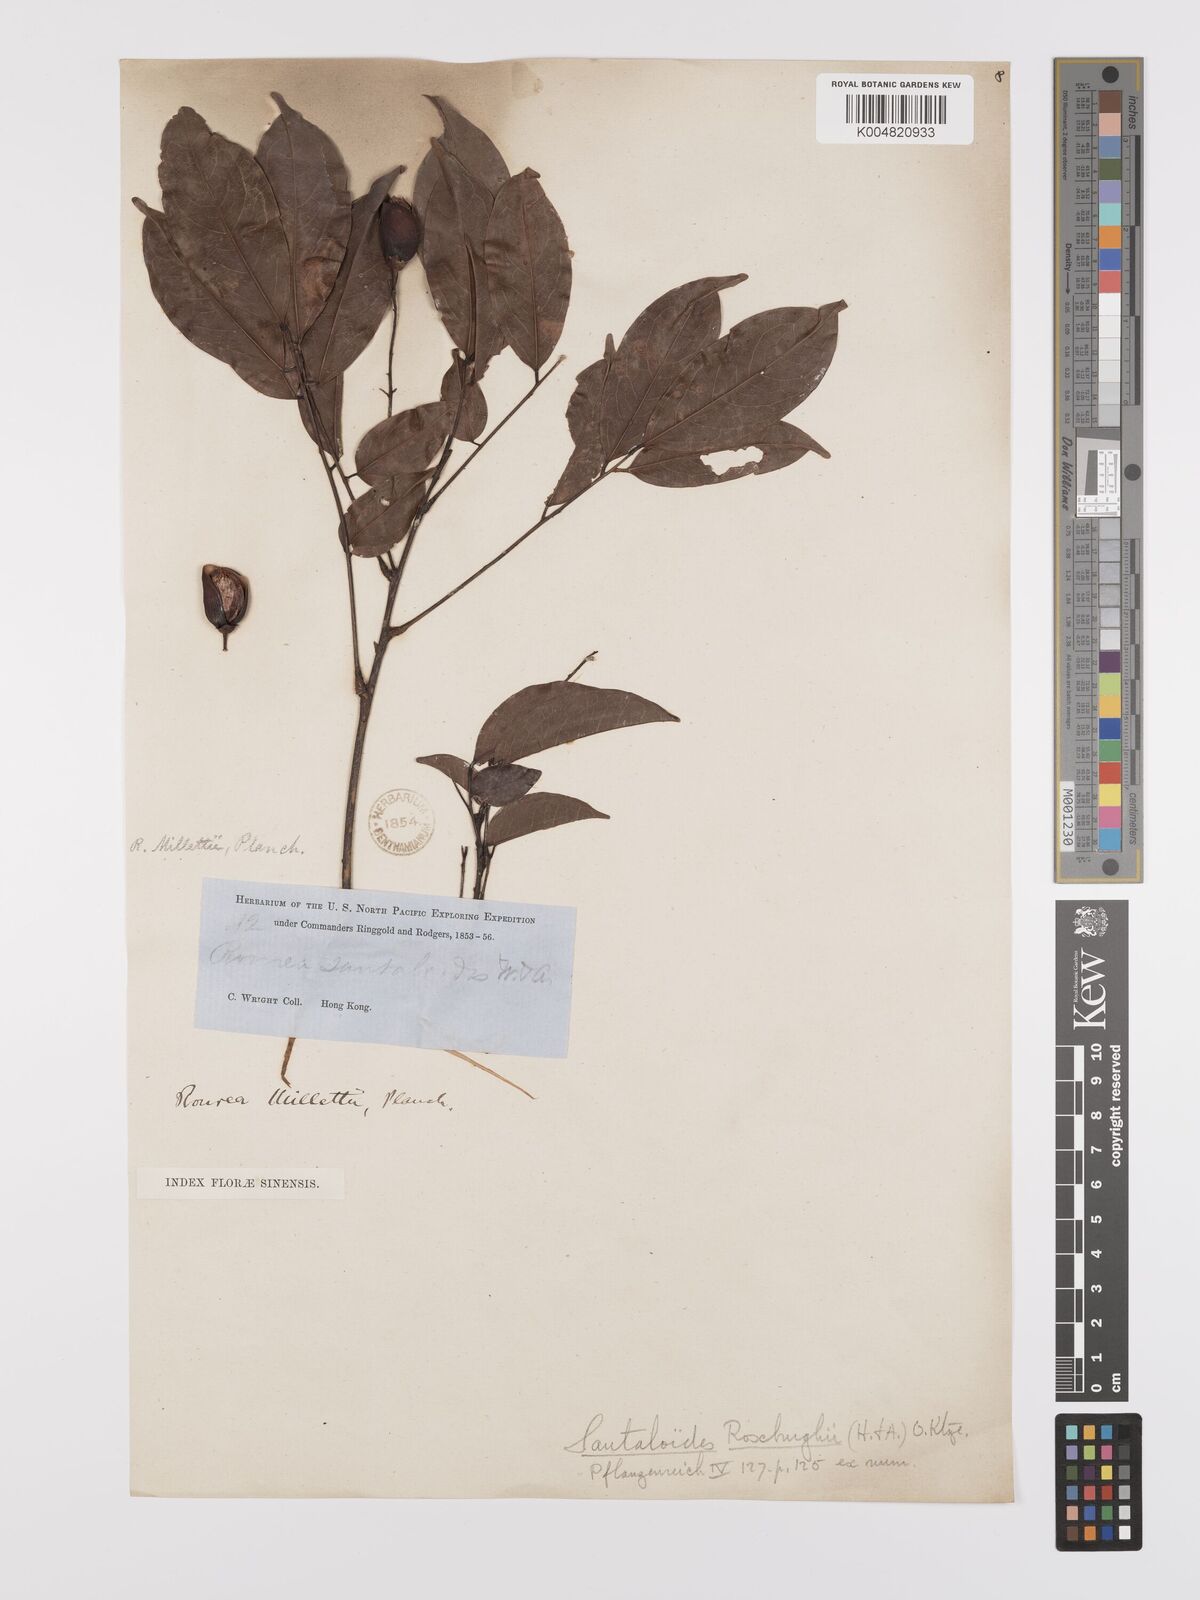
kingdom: Plantae
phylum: Tracheophyta
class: Magnoliopsida
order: Oxalidales
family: Connaraceae
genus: Rourea
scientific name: Rourea
